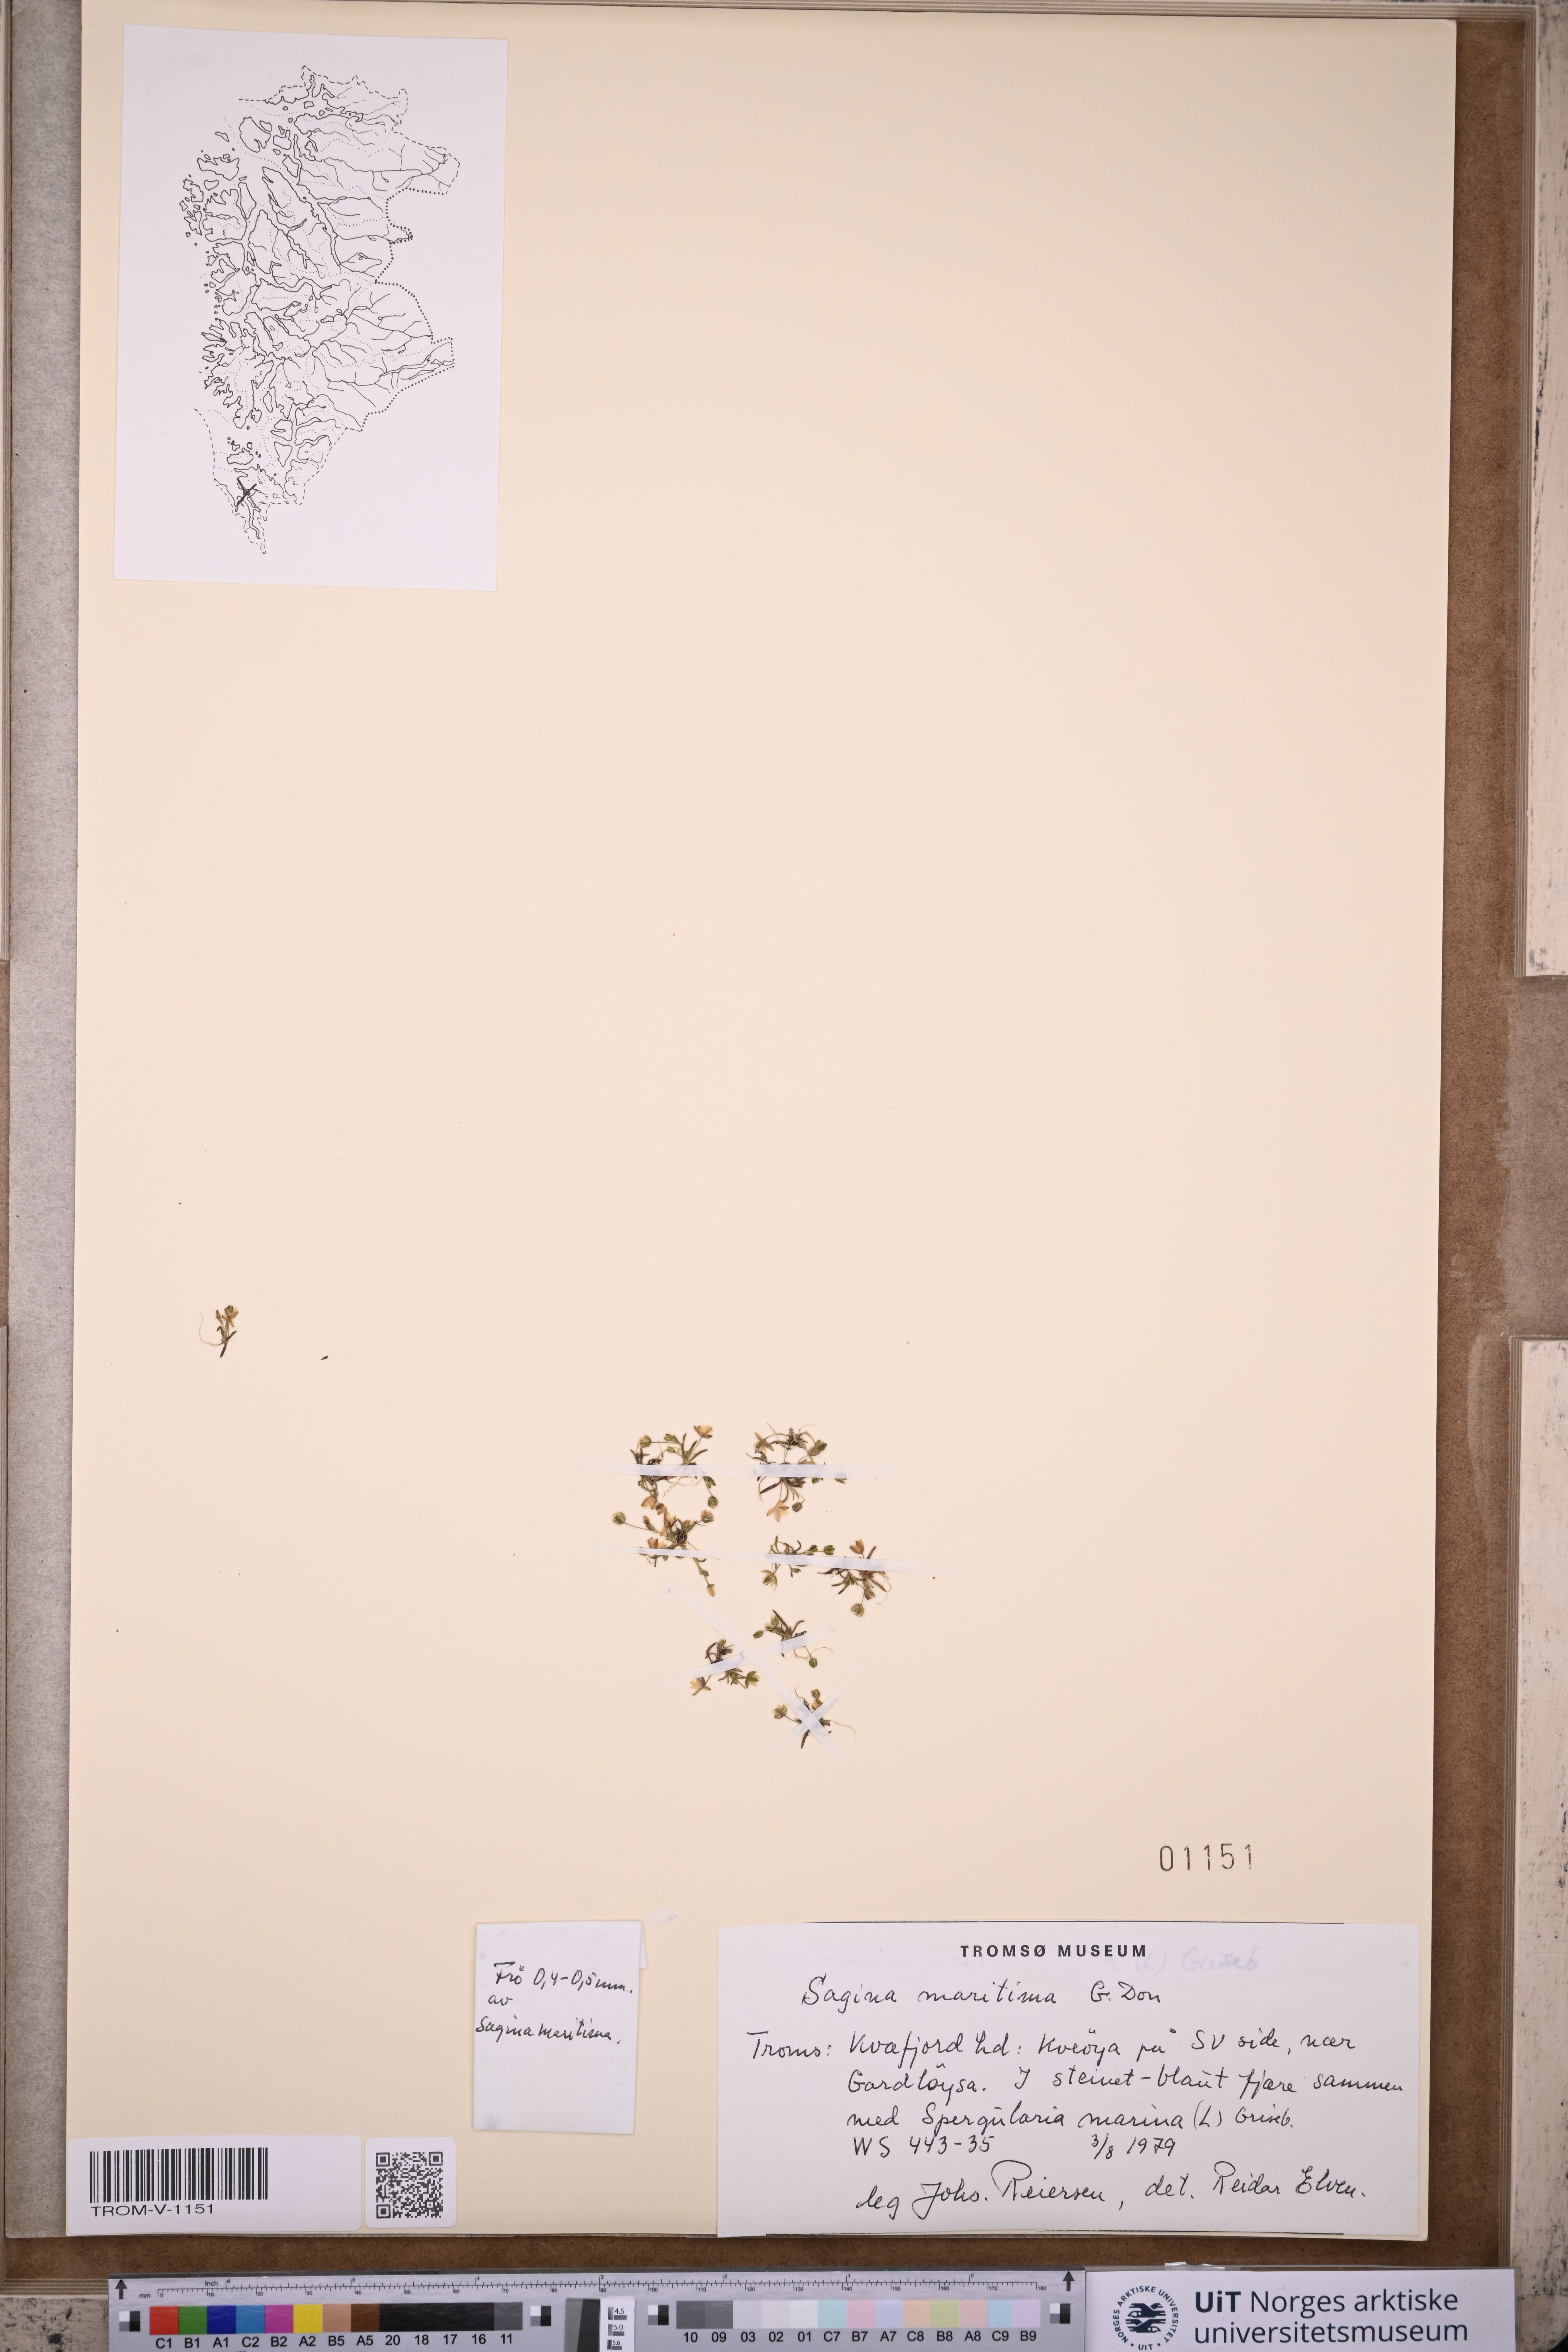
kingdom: Plantae
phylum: Tracheophyta
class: Magnoliopsida
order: Caryophyllales
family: Caryophyllaceae
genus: Sagina
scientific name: Sagina maritima
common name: Sea pearlwort
